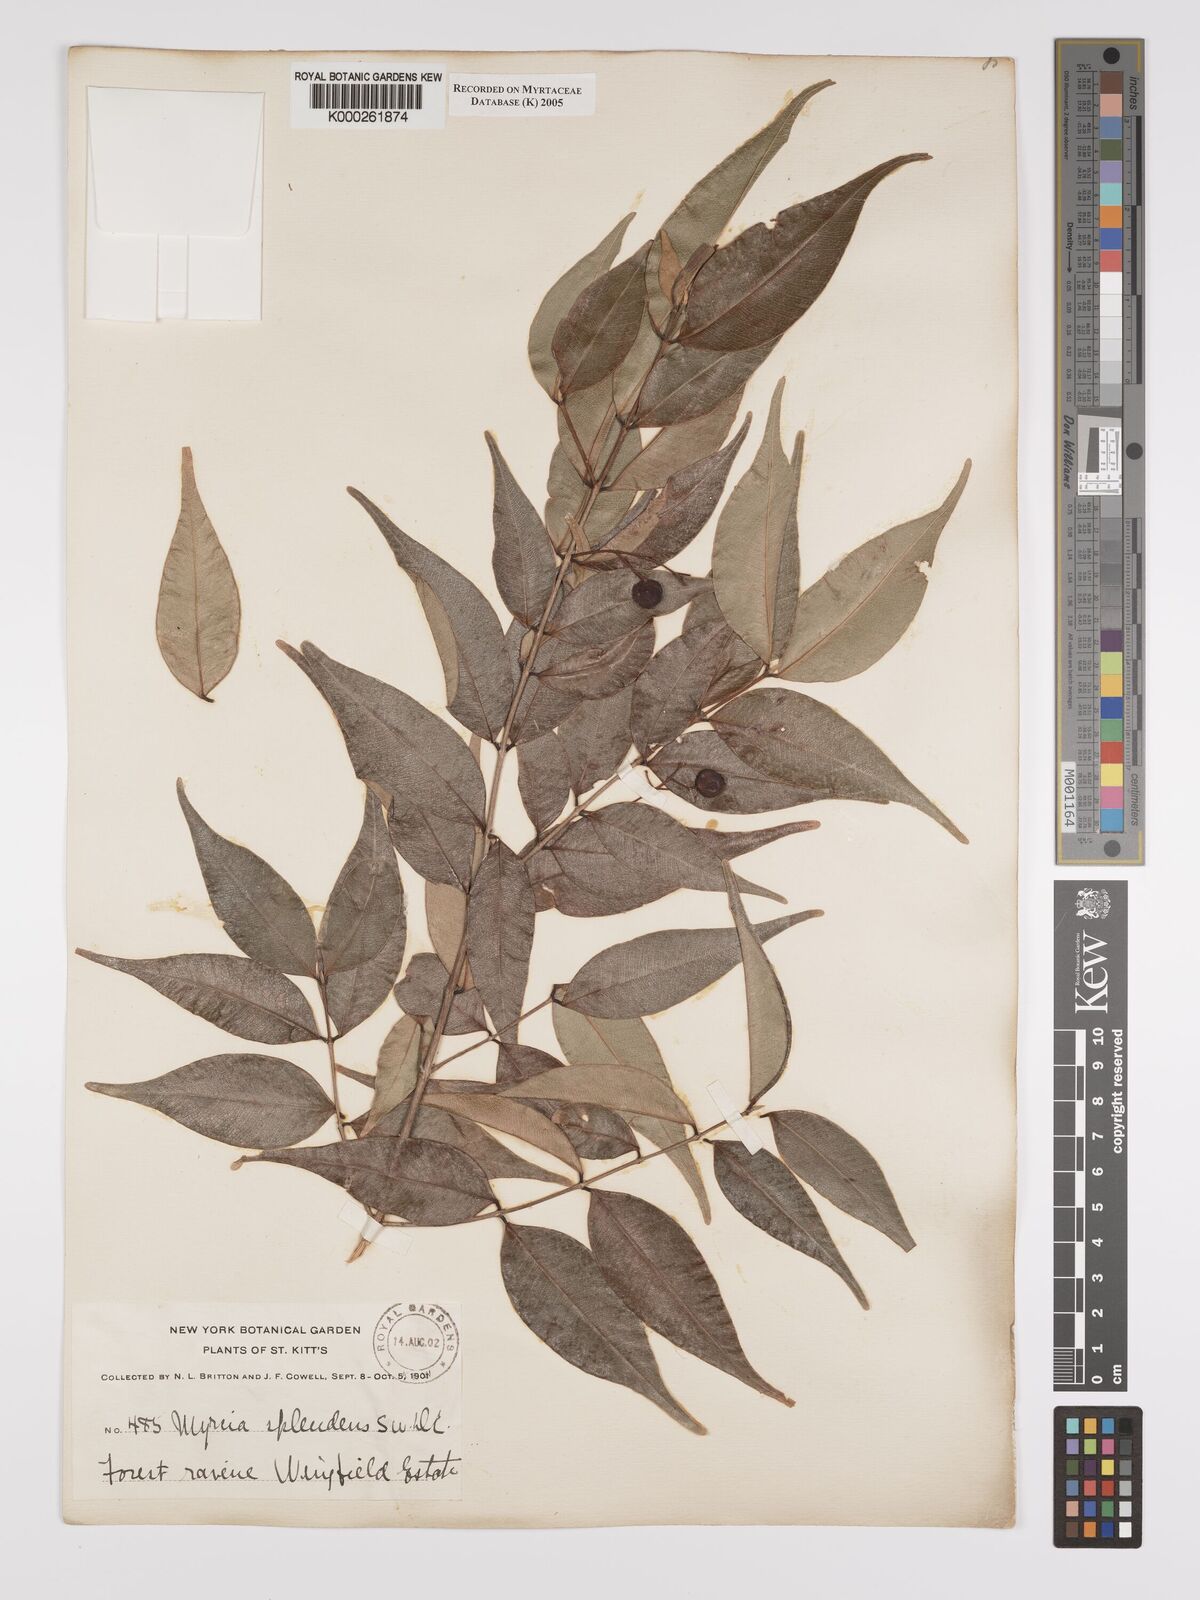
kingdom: Plantae
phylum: Tracheophyta
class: Magnoliopsida
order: Myrtales
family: Myrtaceae
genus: Myrcia
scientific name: Myrcia splendens
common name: Surinam cherry
